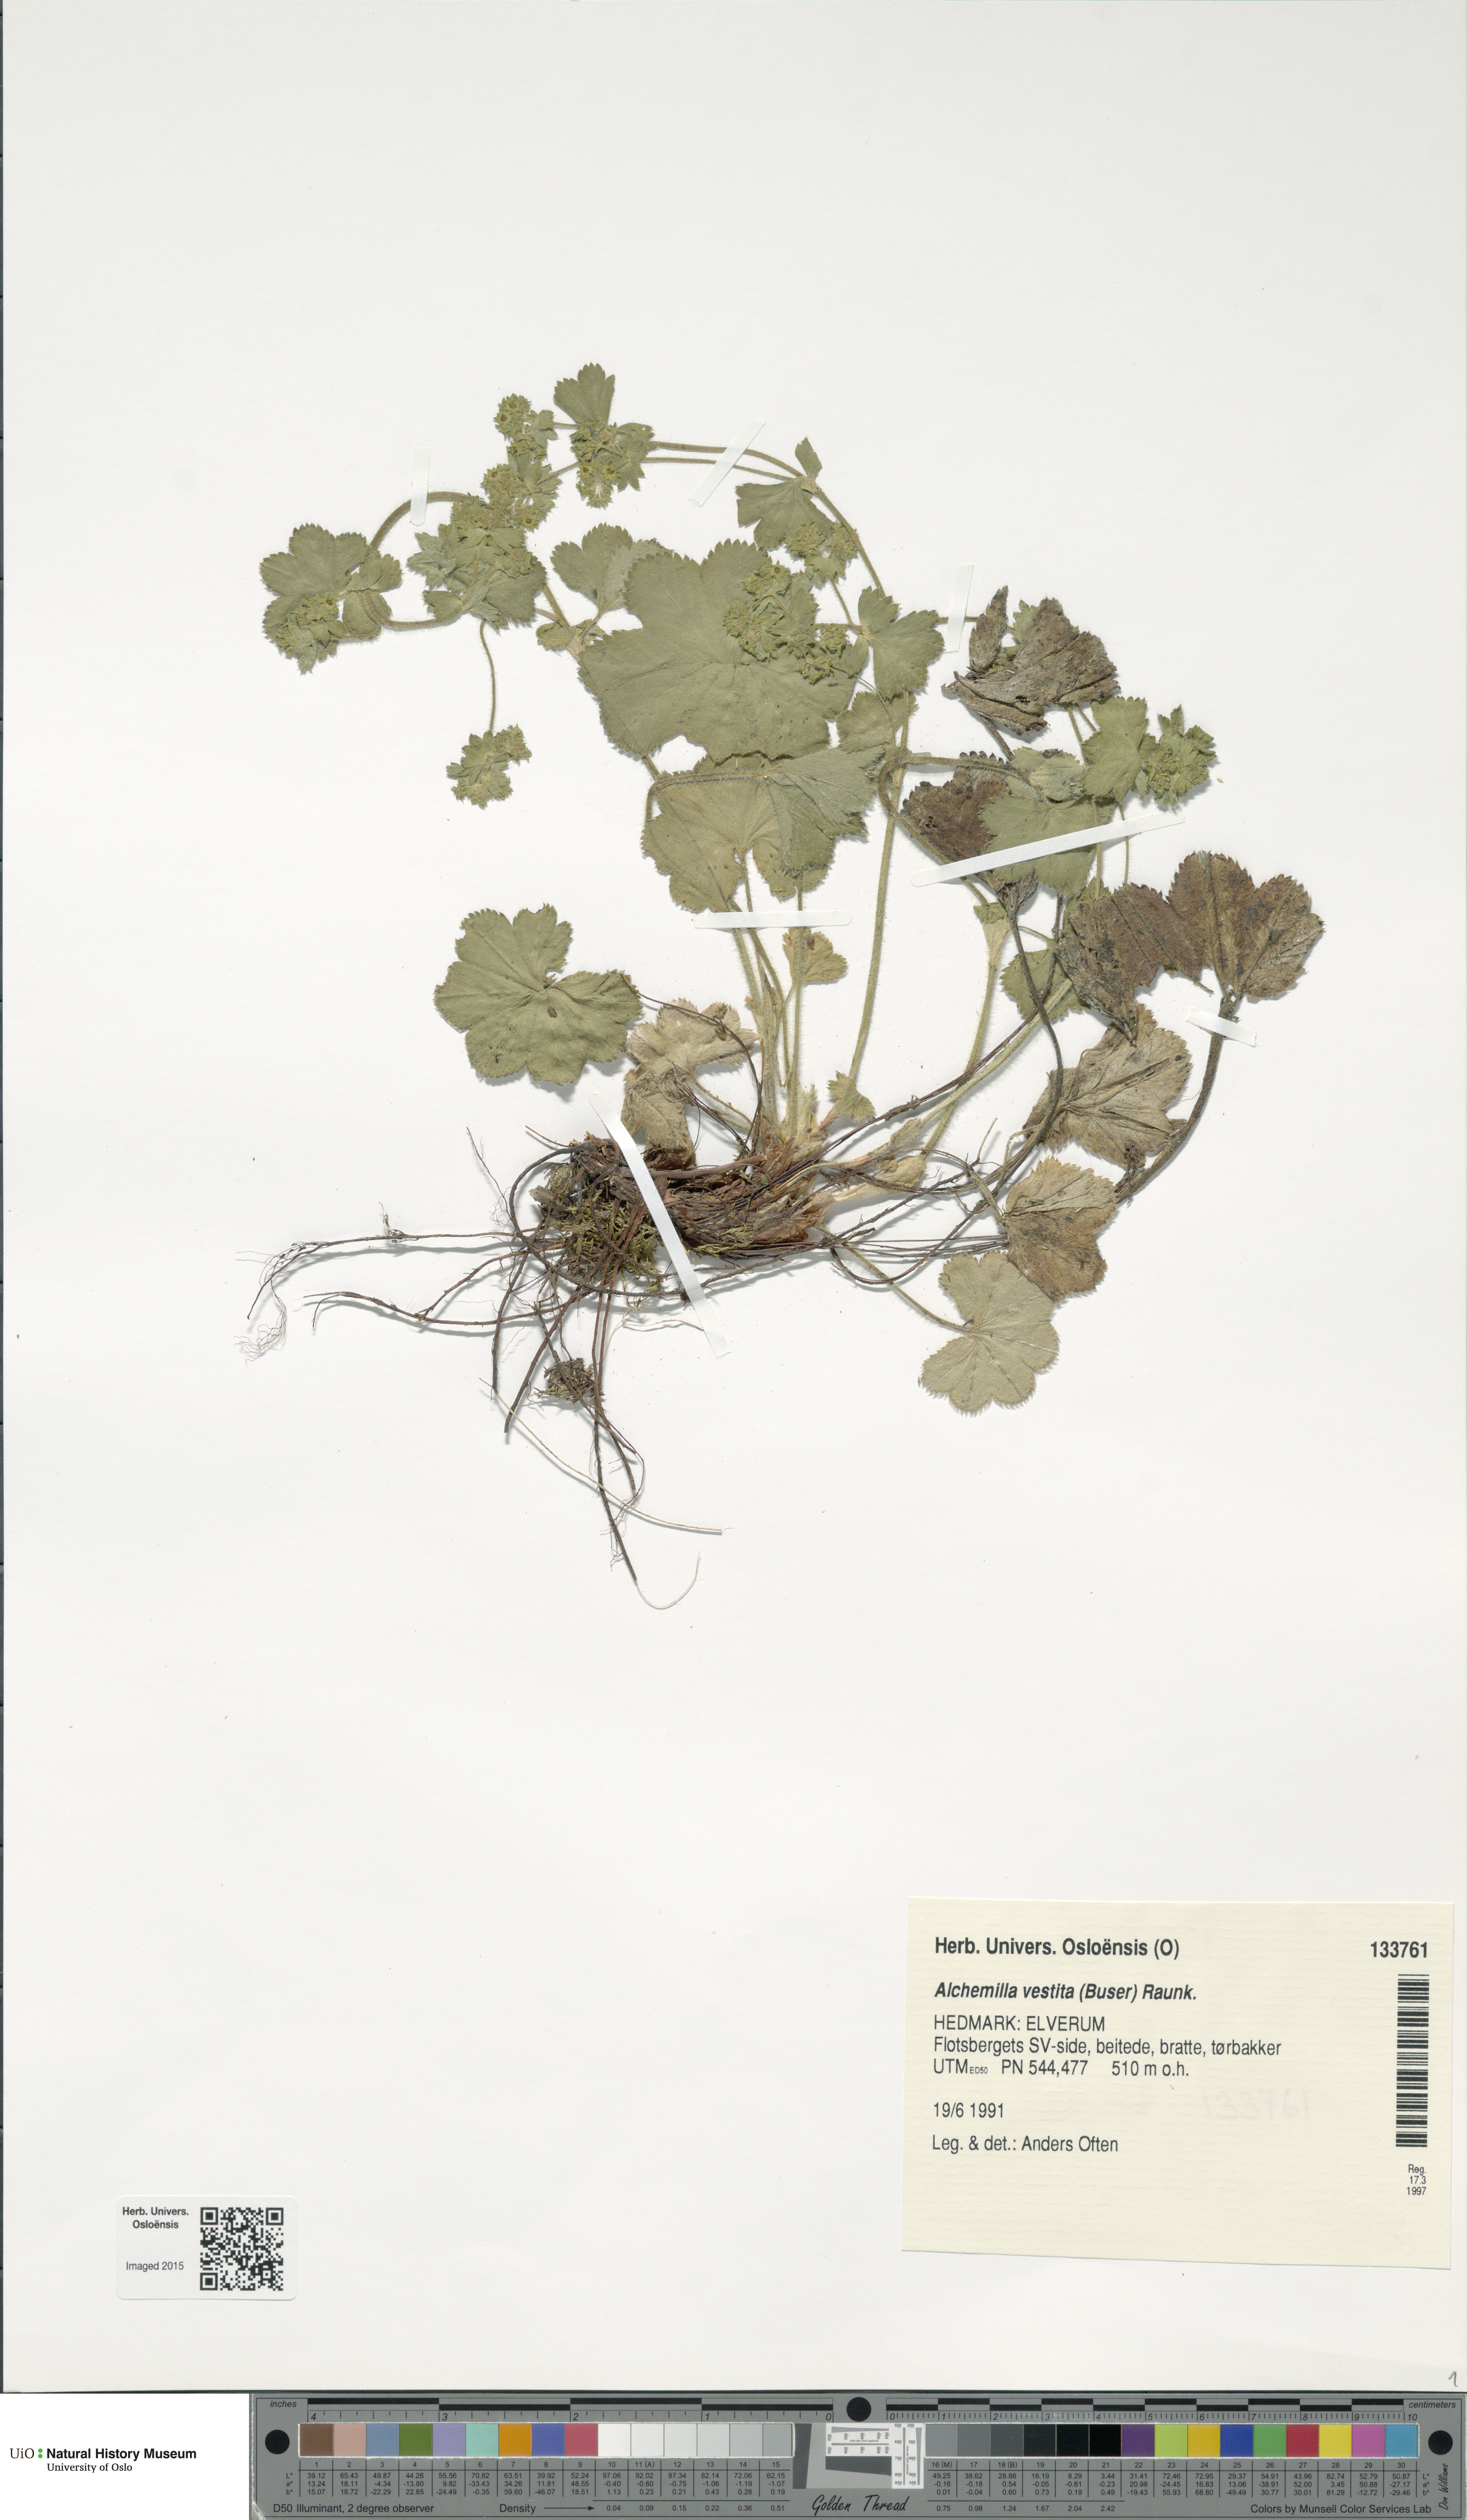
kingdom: Plantae
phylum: Tracheophyta
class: Magnoliopsida
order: Rosales
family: Rosaceae
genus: Alchemilla
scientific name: Alchemilla filicaulis
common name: Hairy lady's-mantle
